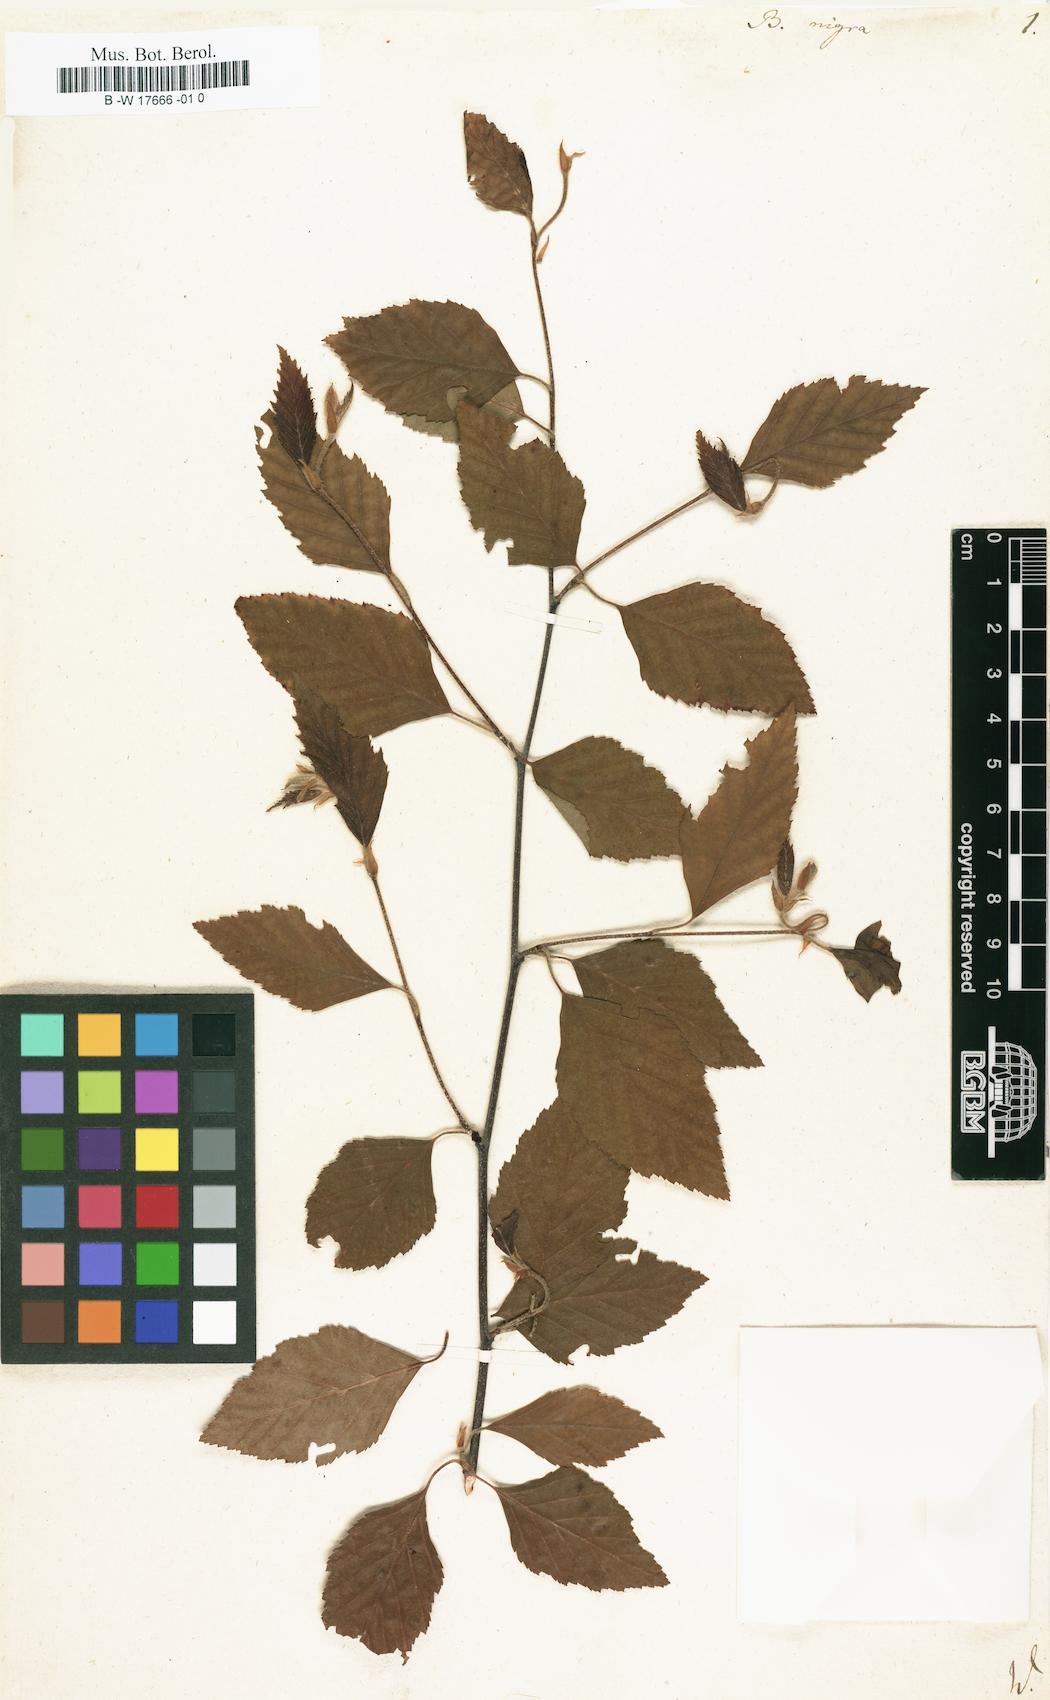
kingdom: Plantae
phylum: Tracheophyta
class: Magnoliopsida
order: Fagales
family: Betulaceae
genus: Betula
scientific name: Betula nigra
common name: Black birch
